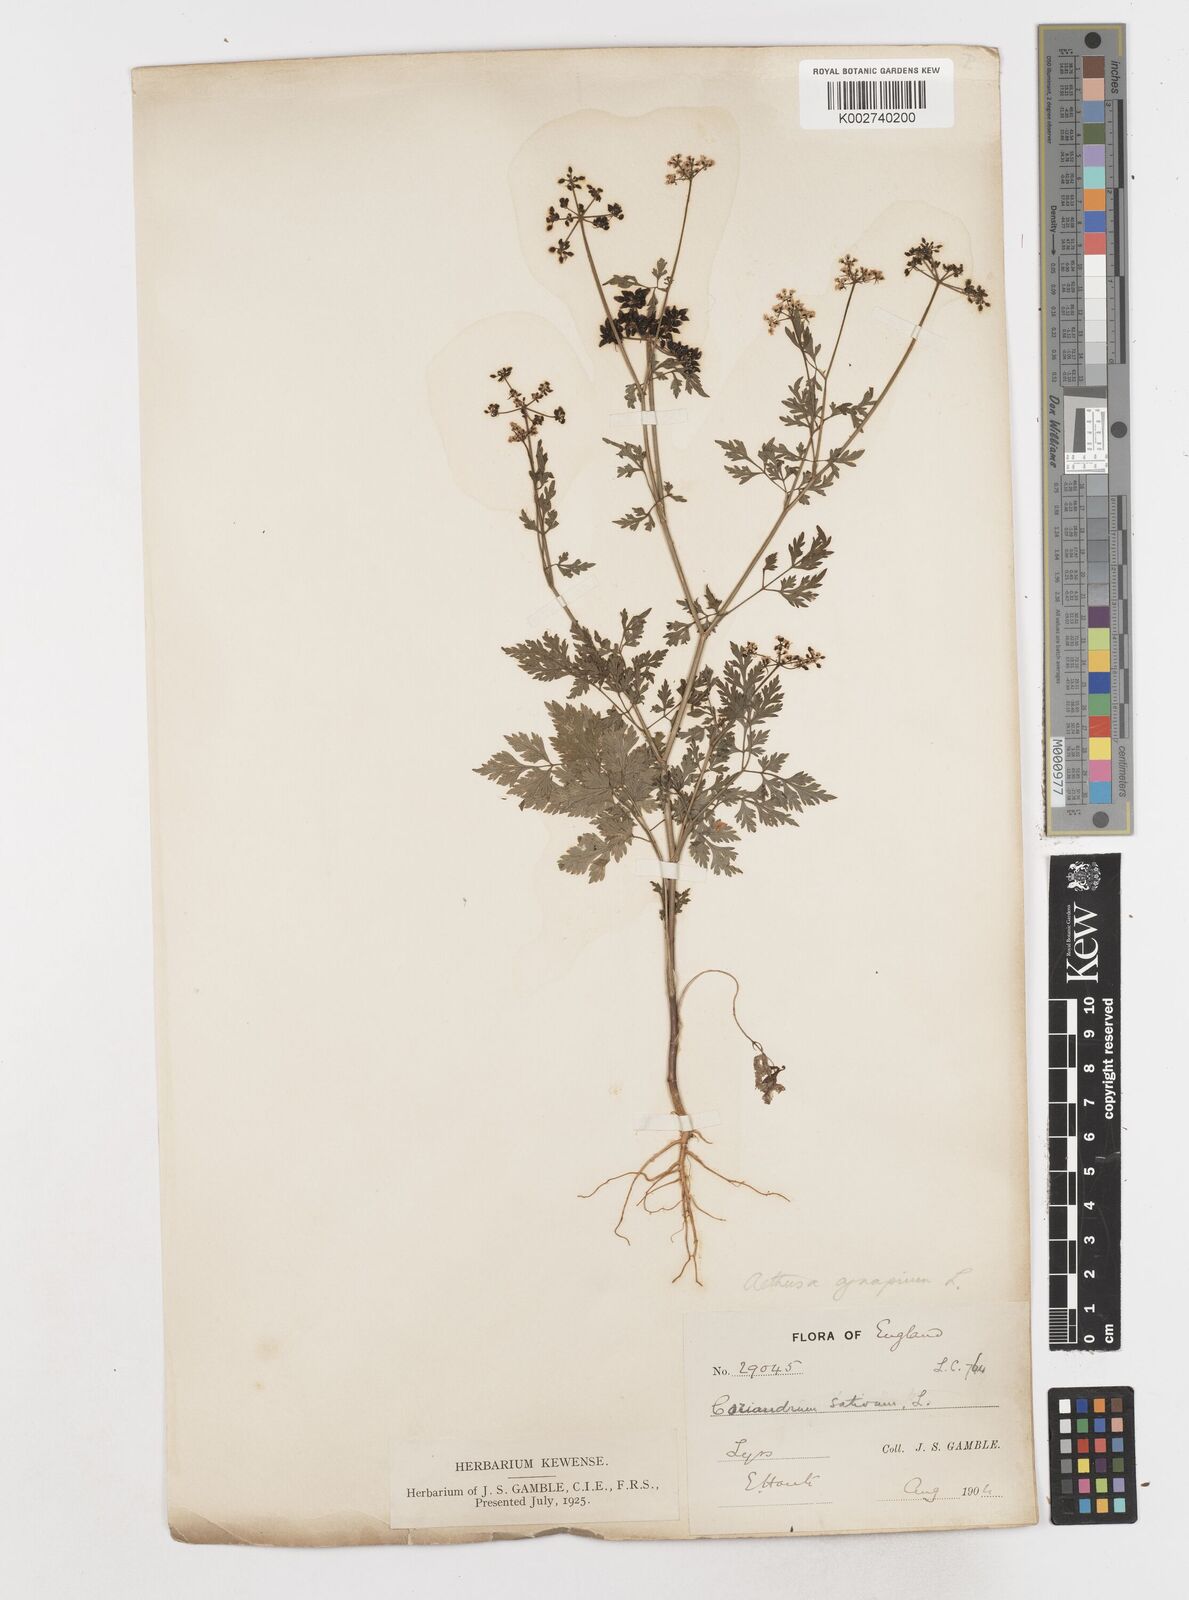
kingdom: Plantae
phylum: Tracheophyta
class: Magnoliopsida
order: Apiales
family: Apiaceae
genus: Aethusa
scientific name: Aethusa cynapium
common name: Fool's parsley
